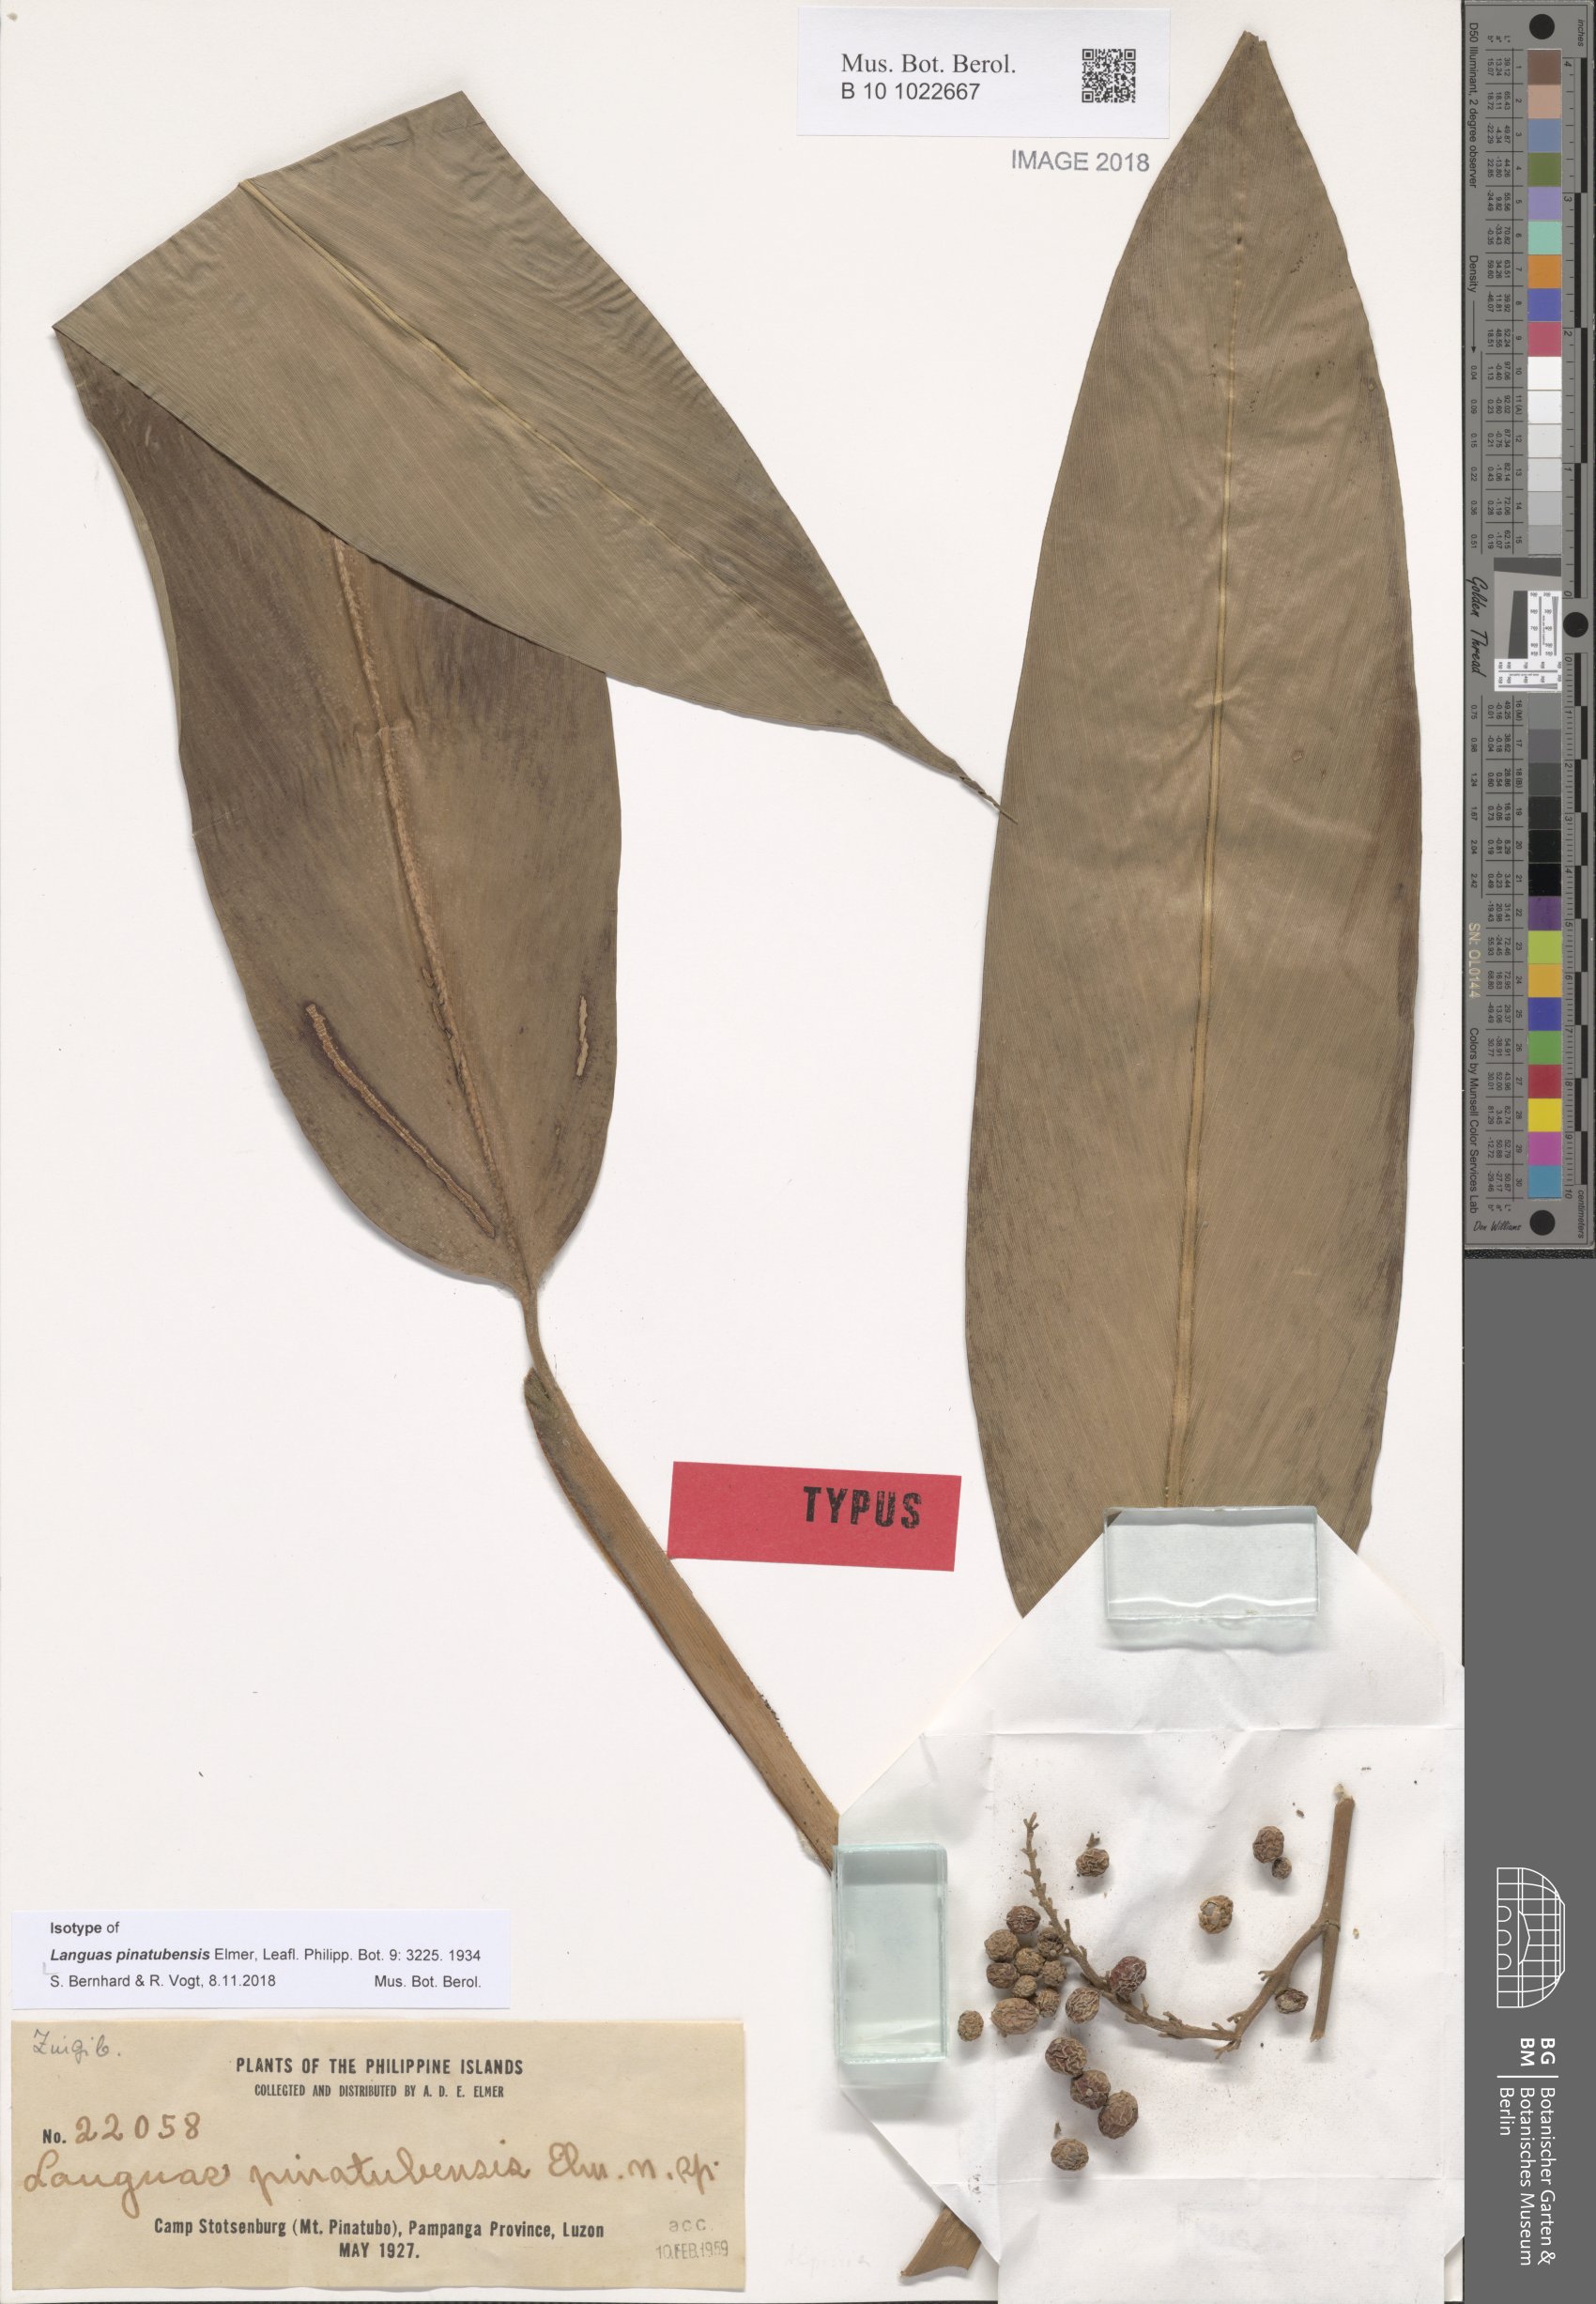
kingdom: Plantae
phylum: Tracheophyta
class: Liliopsida
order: Zingiberales
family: Zingiberaceae
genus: Alpinia
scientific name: Alpinia Languas pinatubensis
